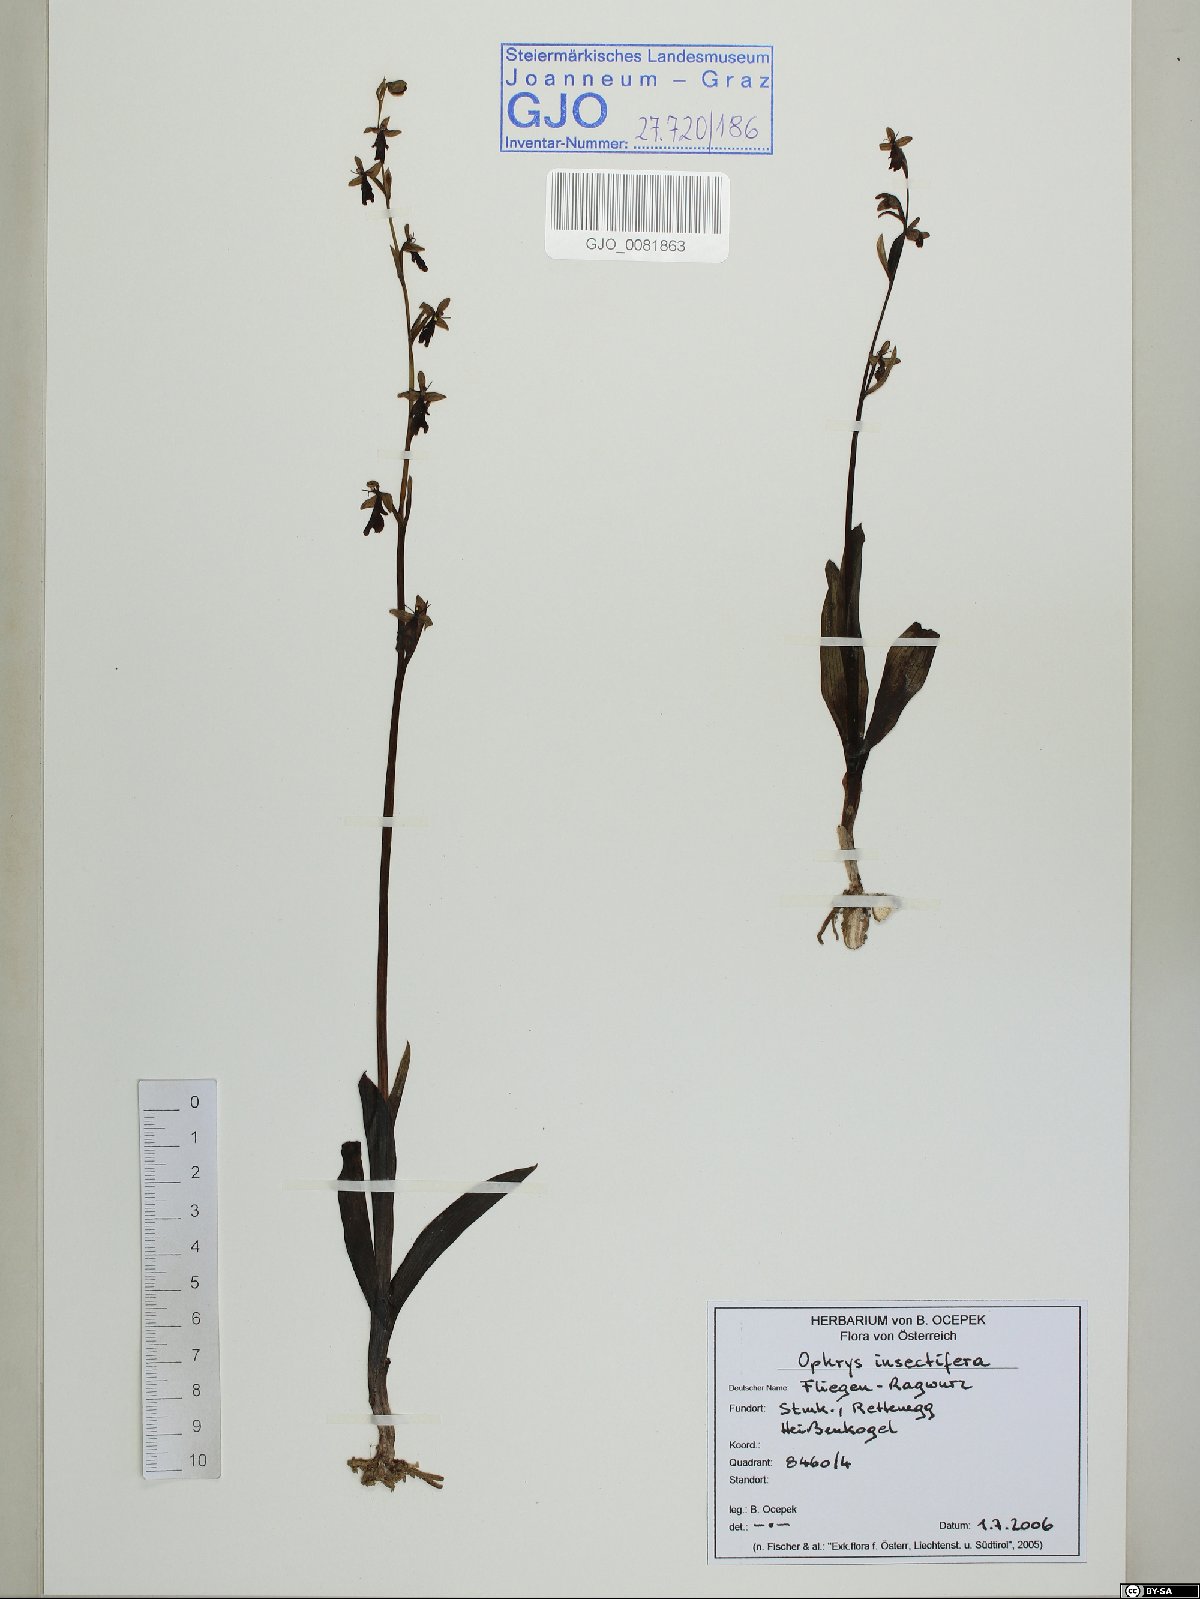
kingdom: Plantae
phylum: Tracheophyta
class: Liliopsida
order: Asparagales
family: Orchidaceae
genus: Ophrys
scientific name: Ophrys insectifera
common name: Fly orchid
